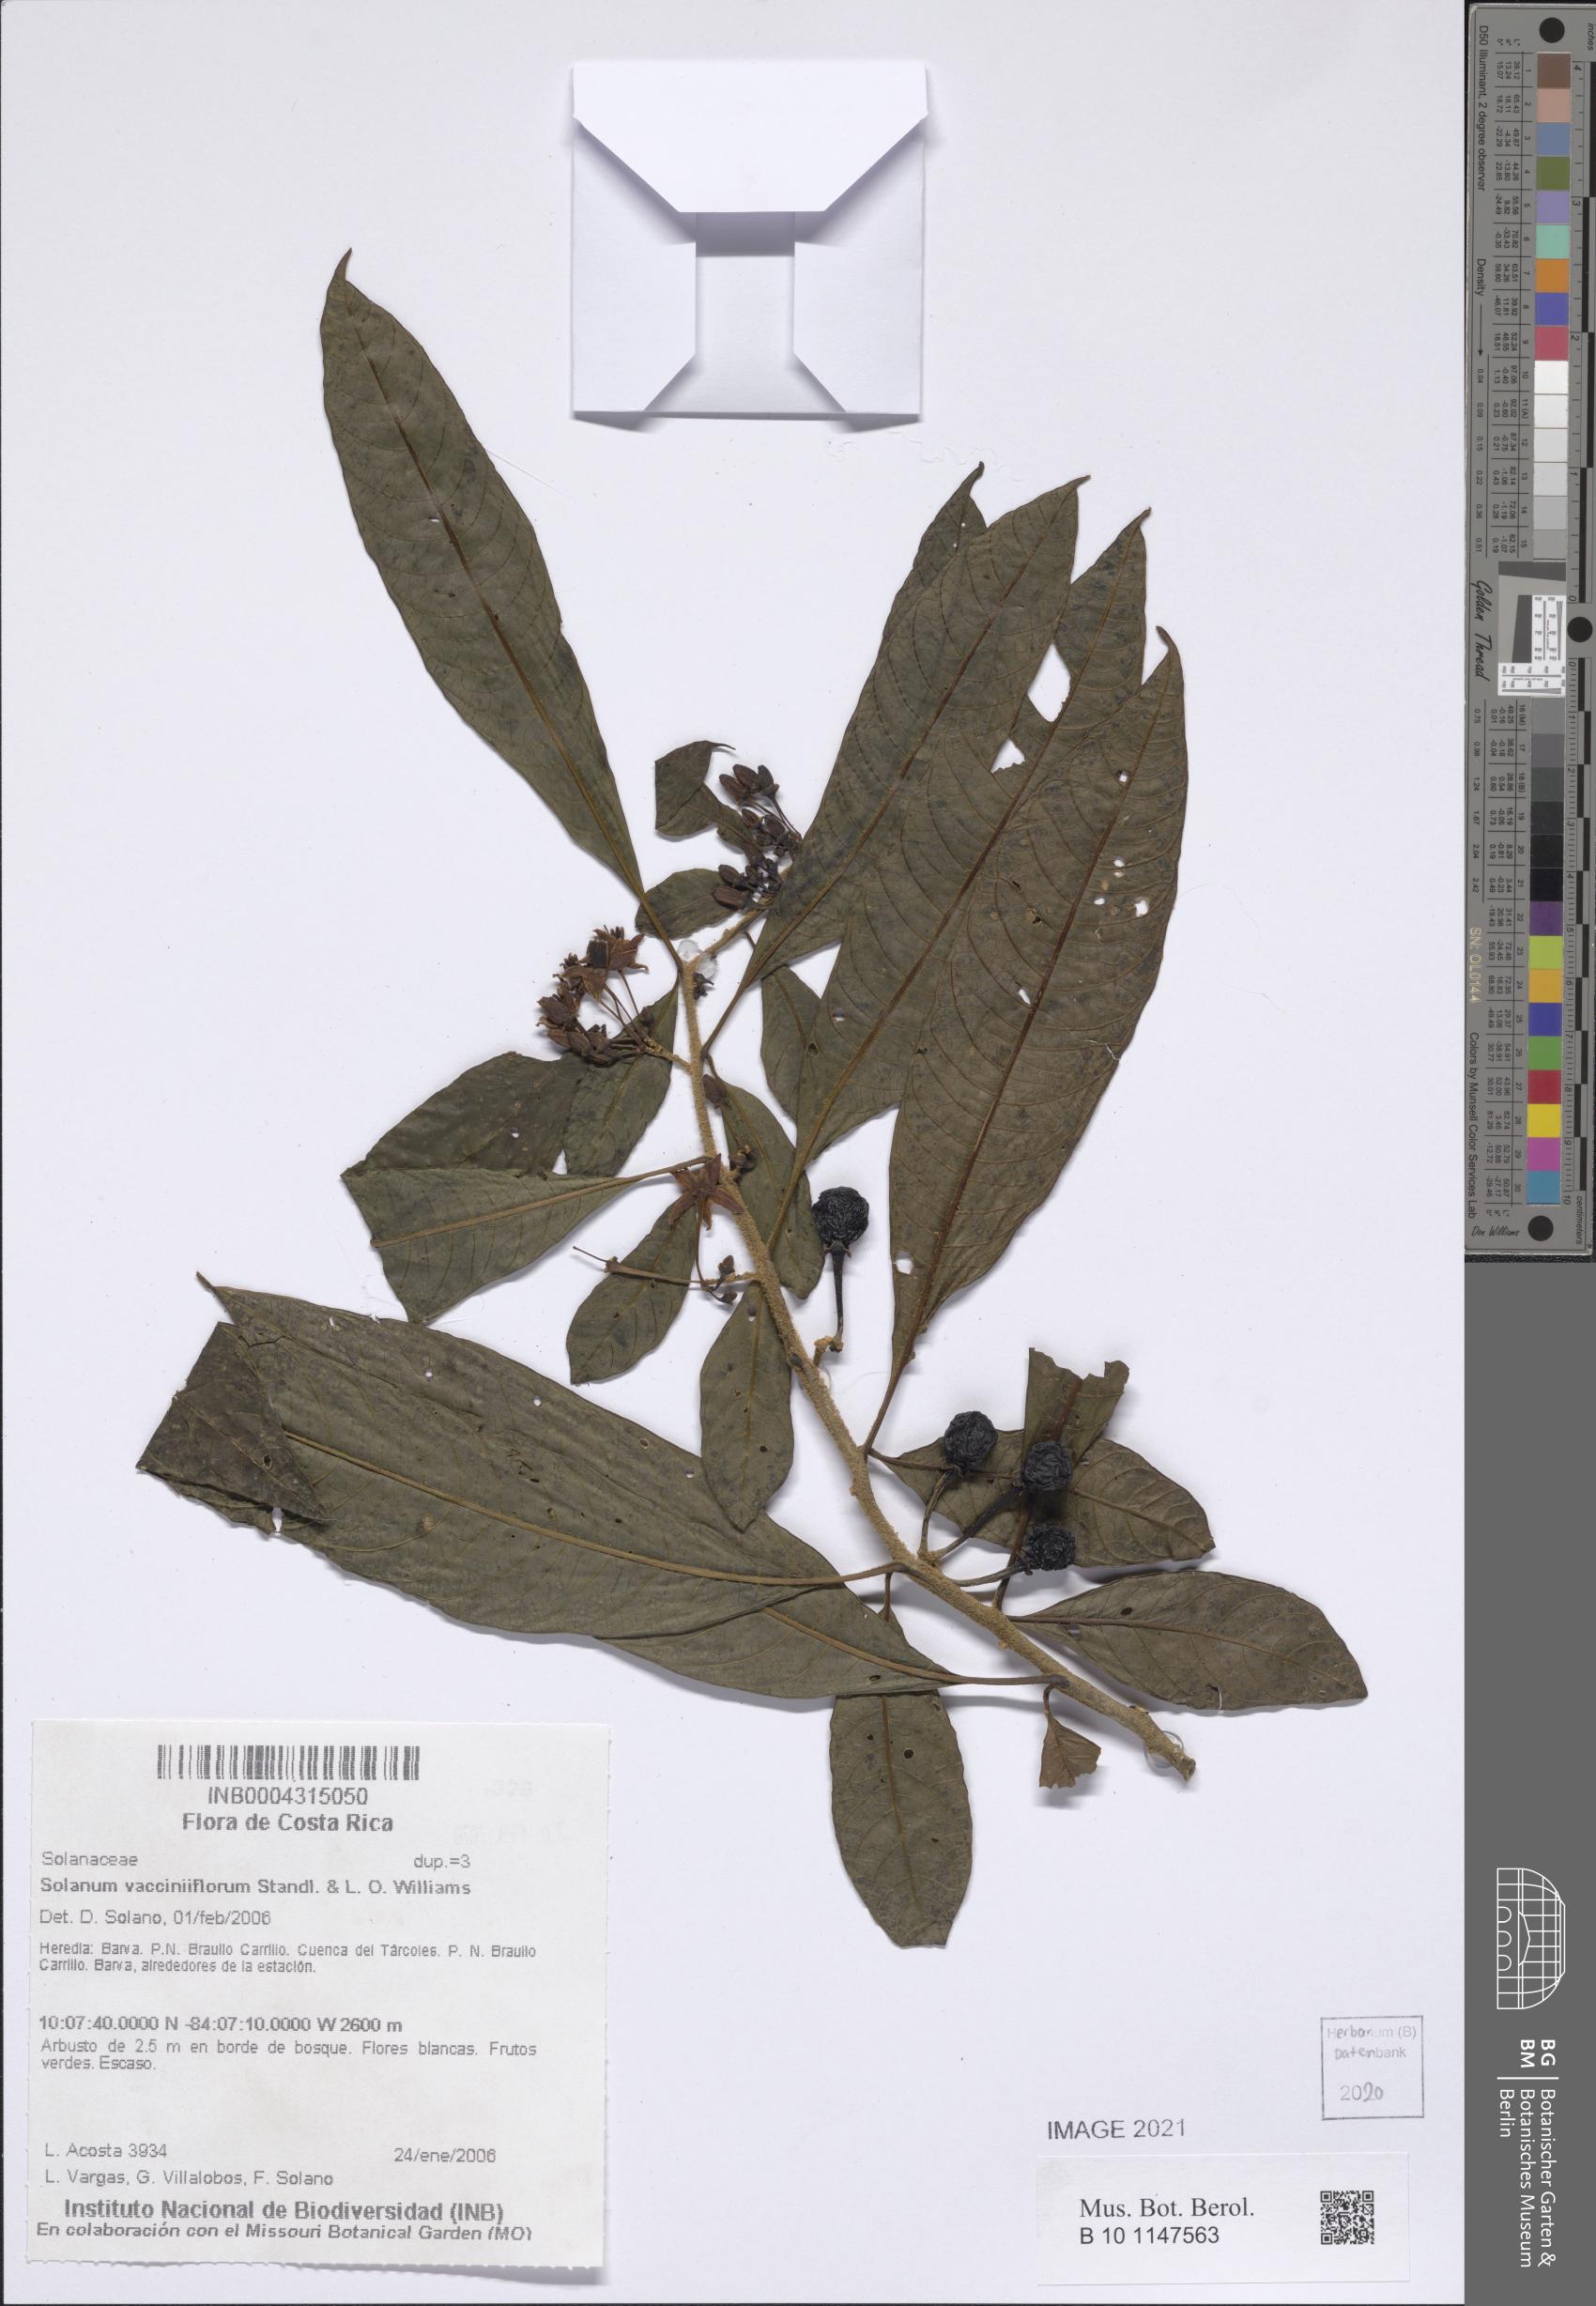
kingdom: Plantae
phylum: Tracheophyta
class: Magnoliopsida
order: Solanales
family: Solanaceae
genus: Solanum
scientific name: Solanum vacciniiflorum
